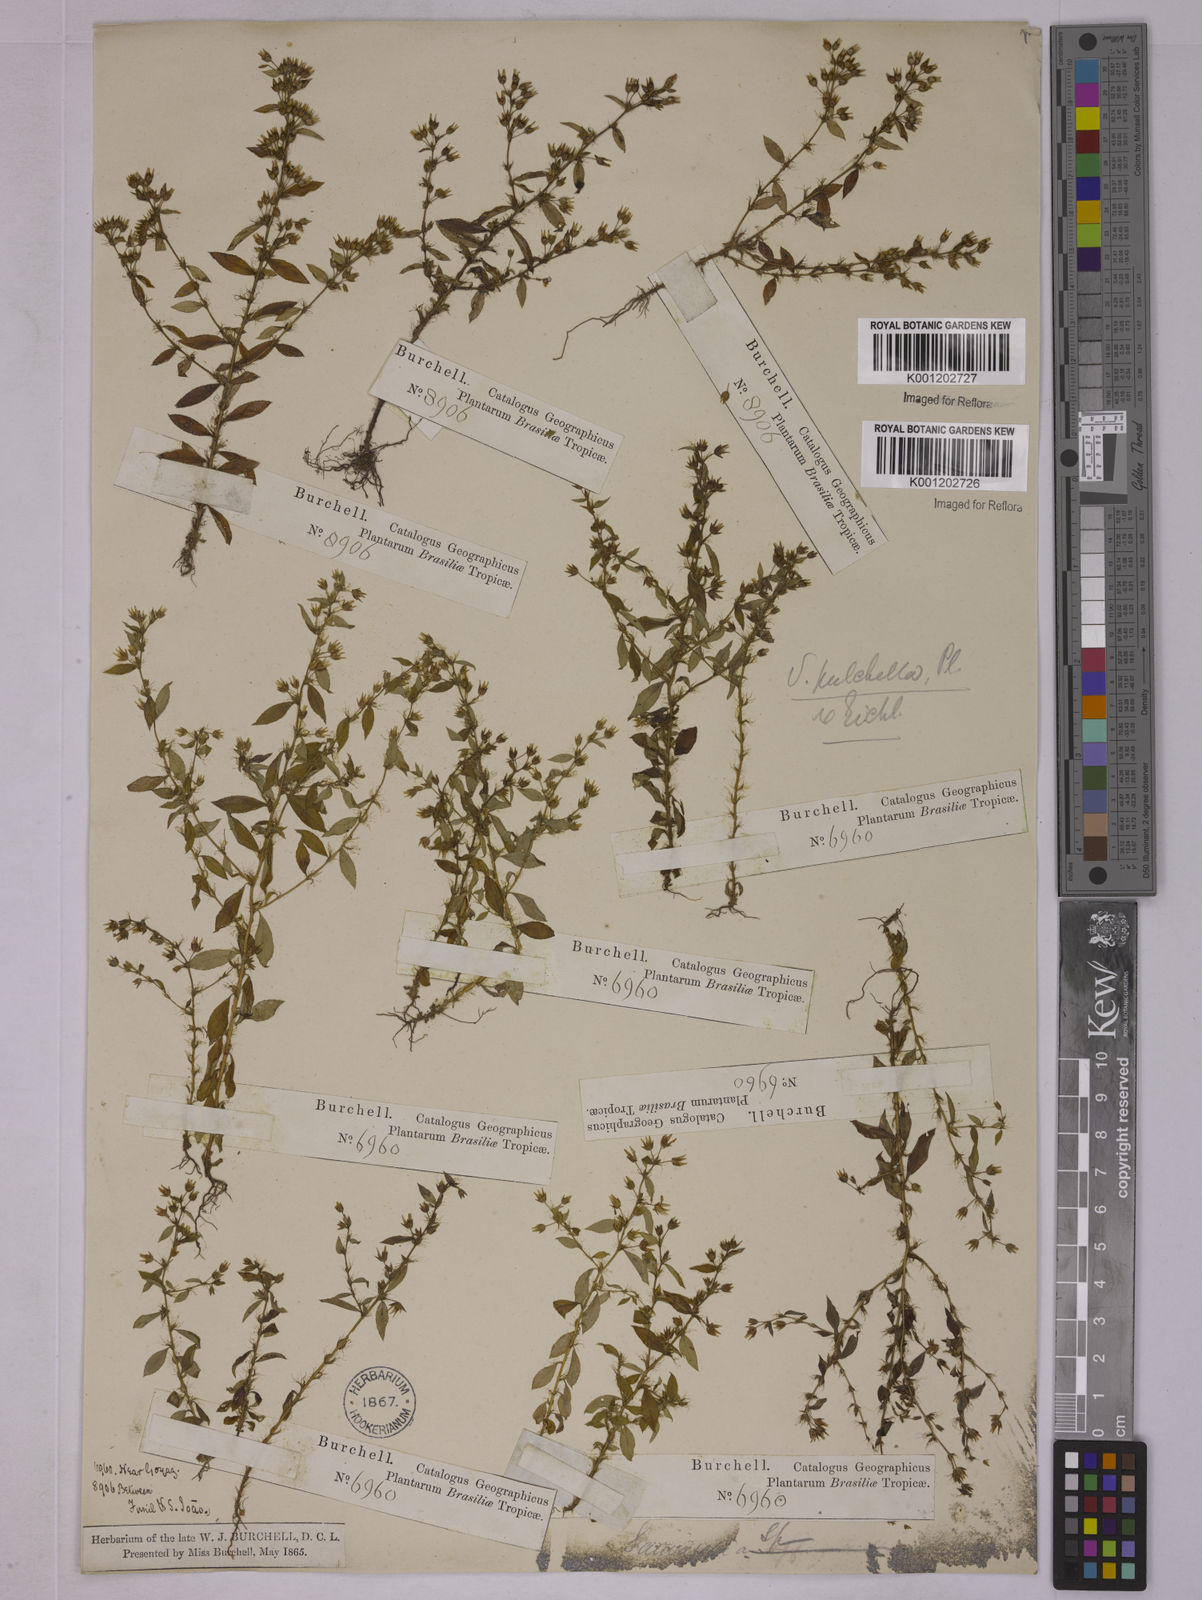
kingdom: Plantae
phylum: Tracheophyta
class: Magnoliopsida
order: Malpighiales
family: Ochnaceae
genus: Sauvagesia
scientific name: Sauvagesia
